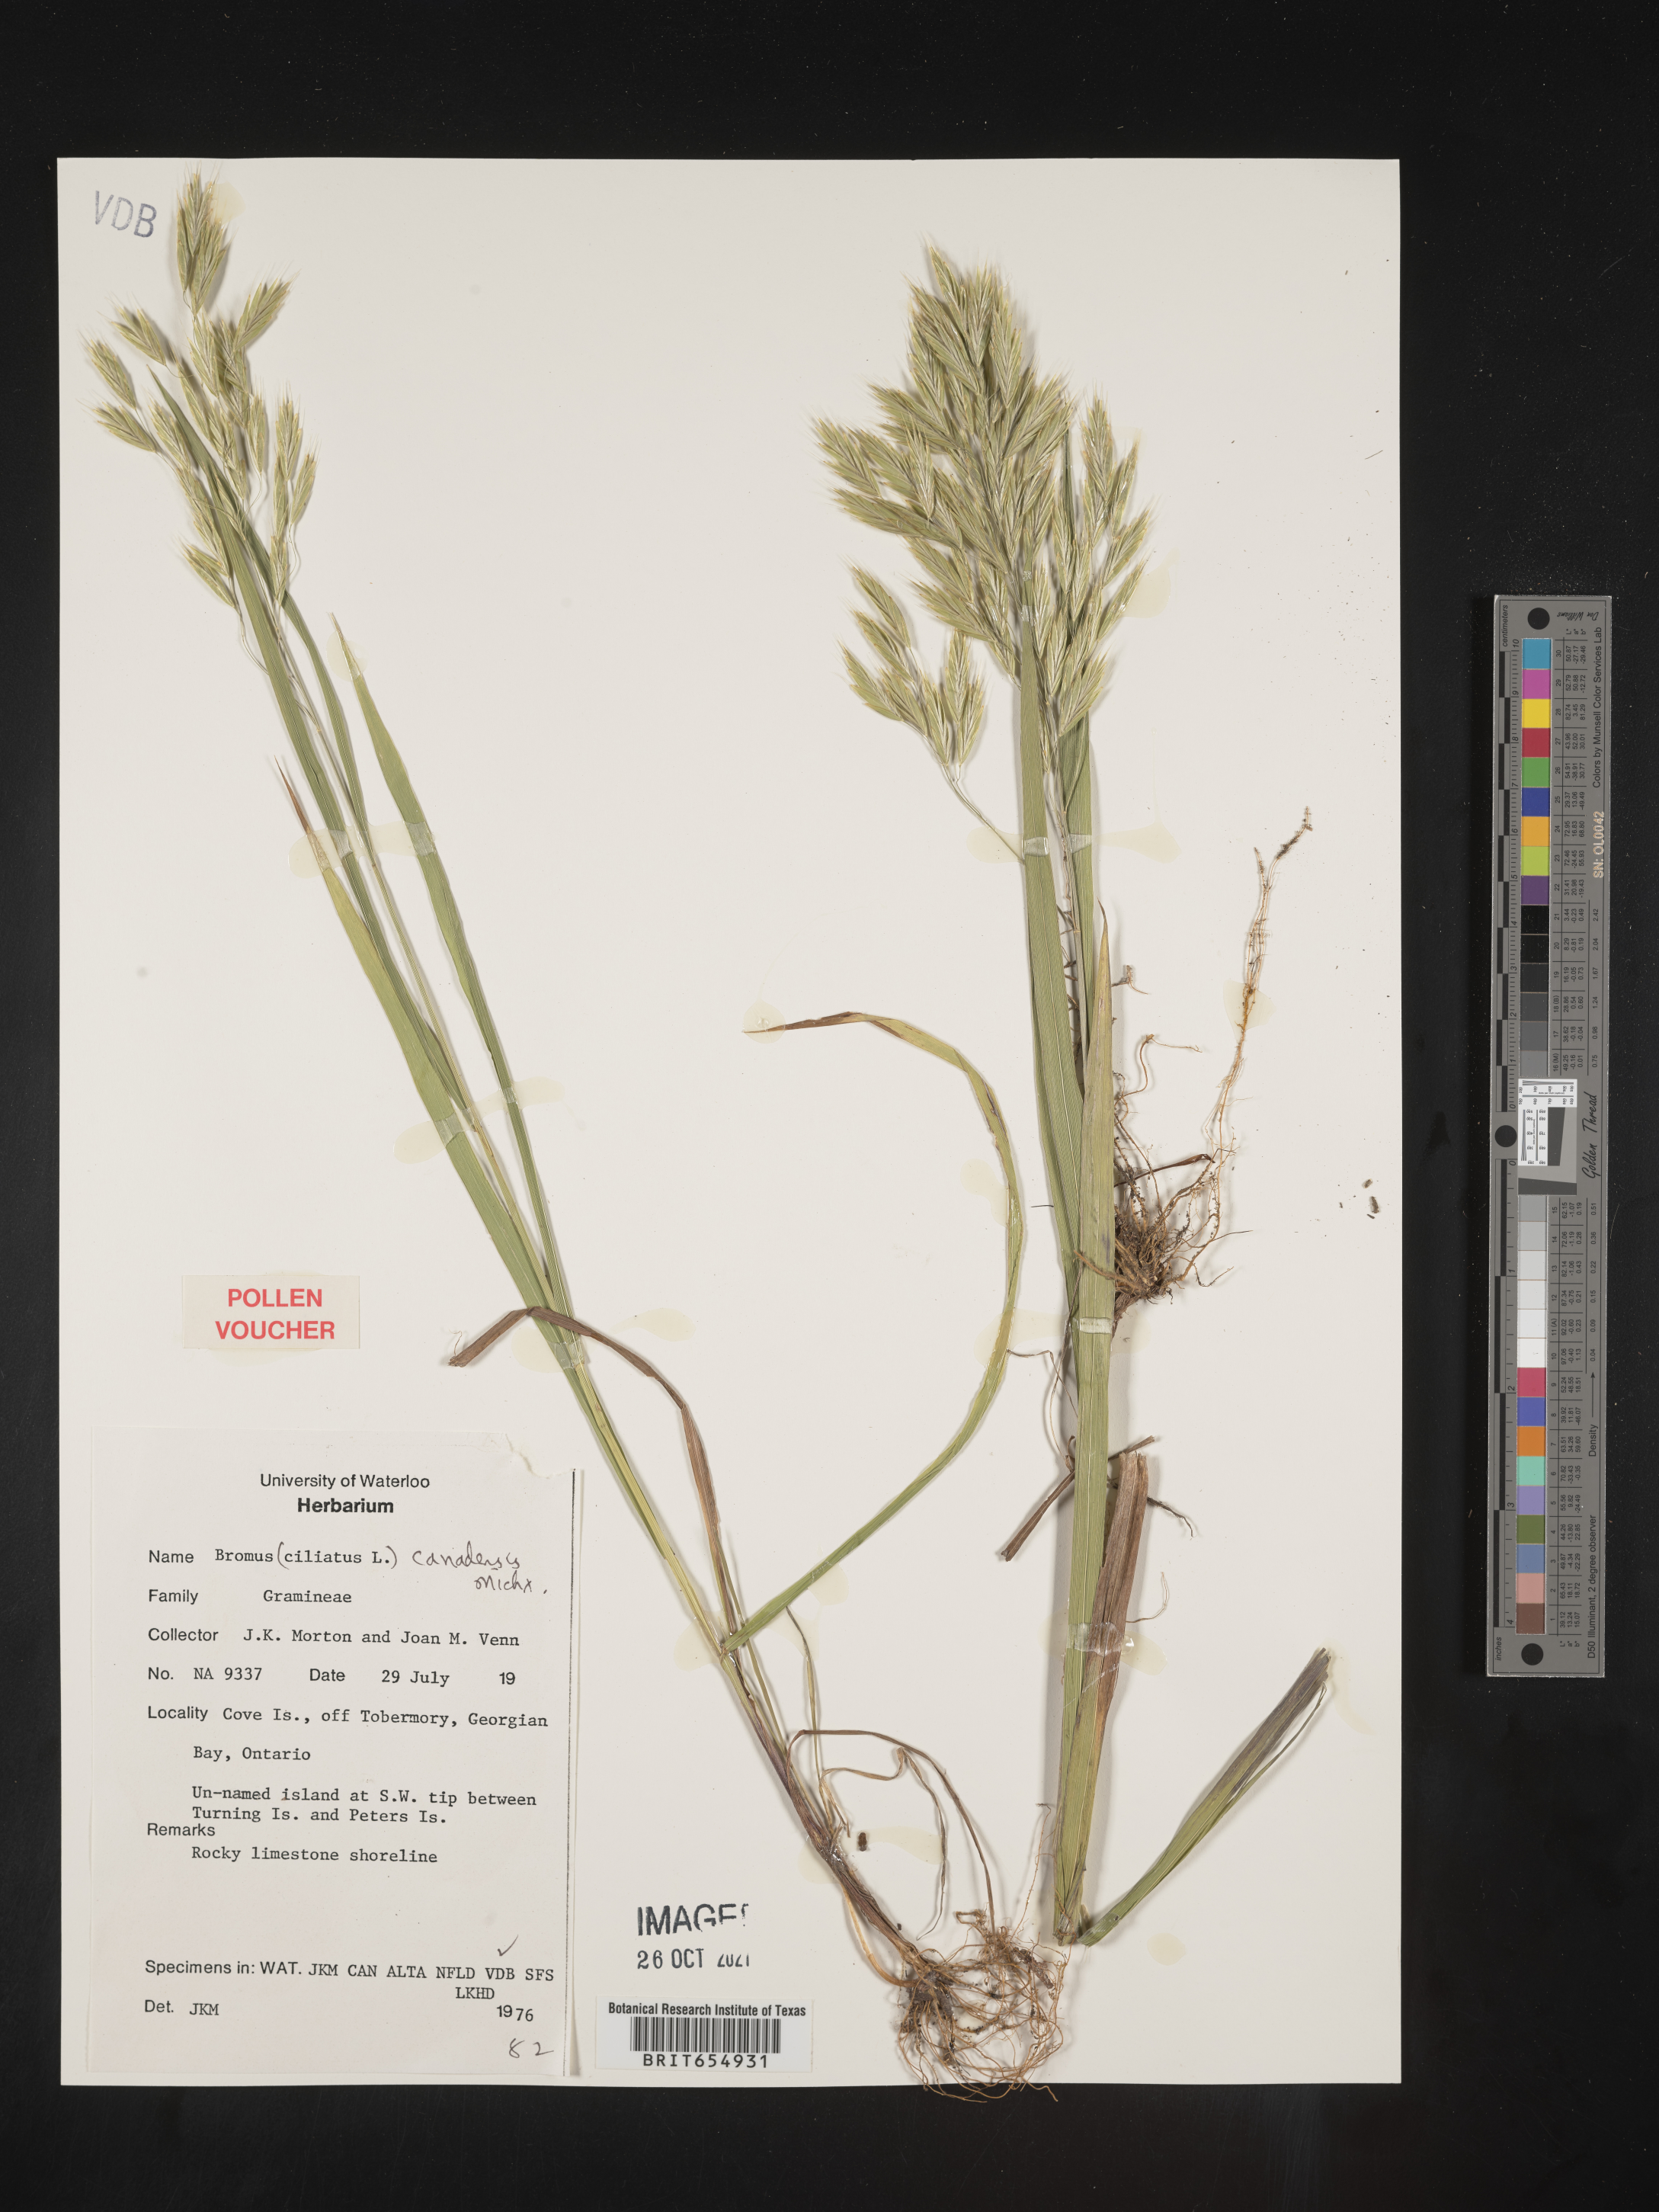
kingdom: Plantae
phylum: Tracheophyta
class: Liliopsida
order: Poales
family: Poaceae
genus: Bromus
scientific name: Bromus
